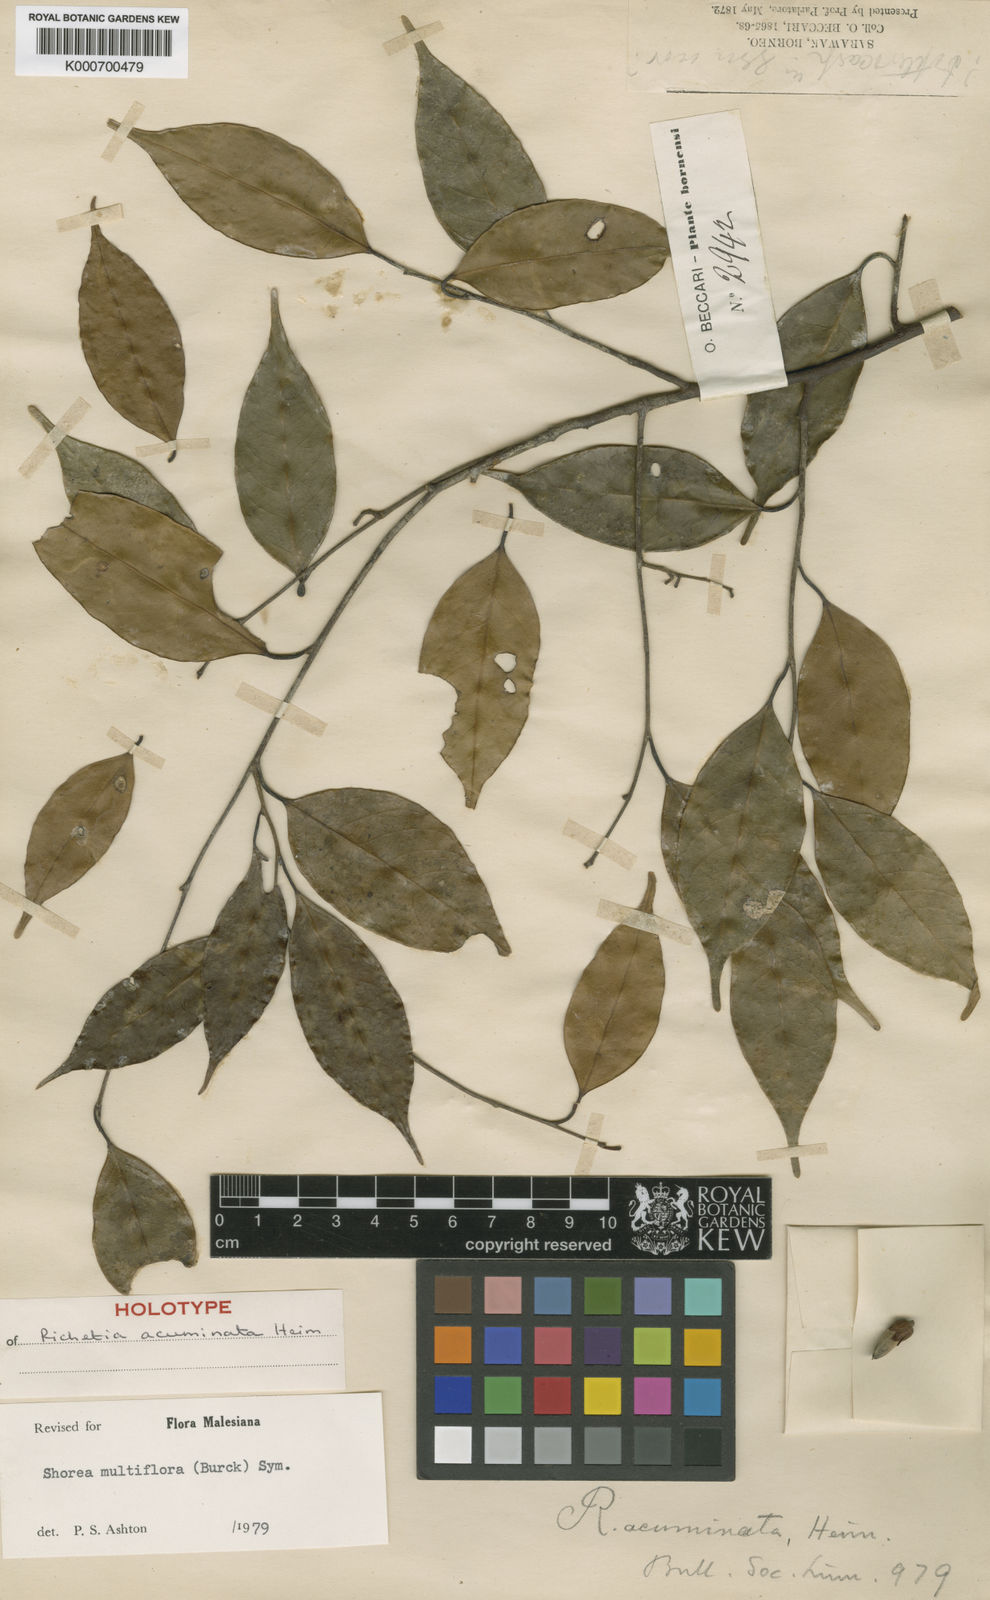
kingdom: Plantae
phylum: Tracheophyta
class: Magnoliopsida
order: Malvales
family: Dipterocarpaceae
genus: Shorea
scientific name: Shorea multiflora
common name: Yellow meranti
